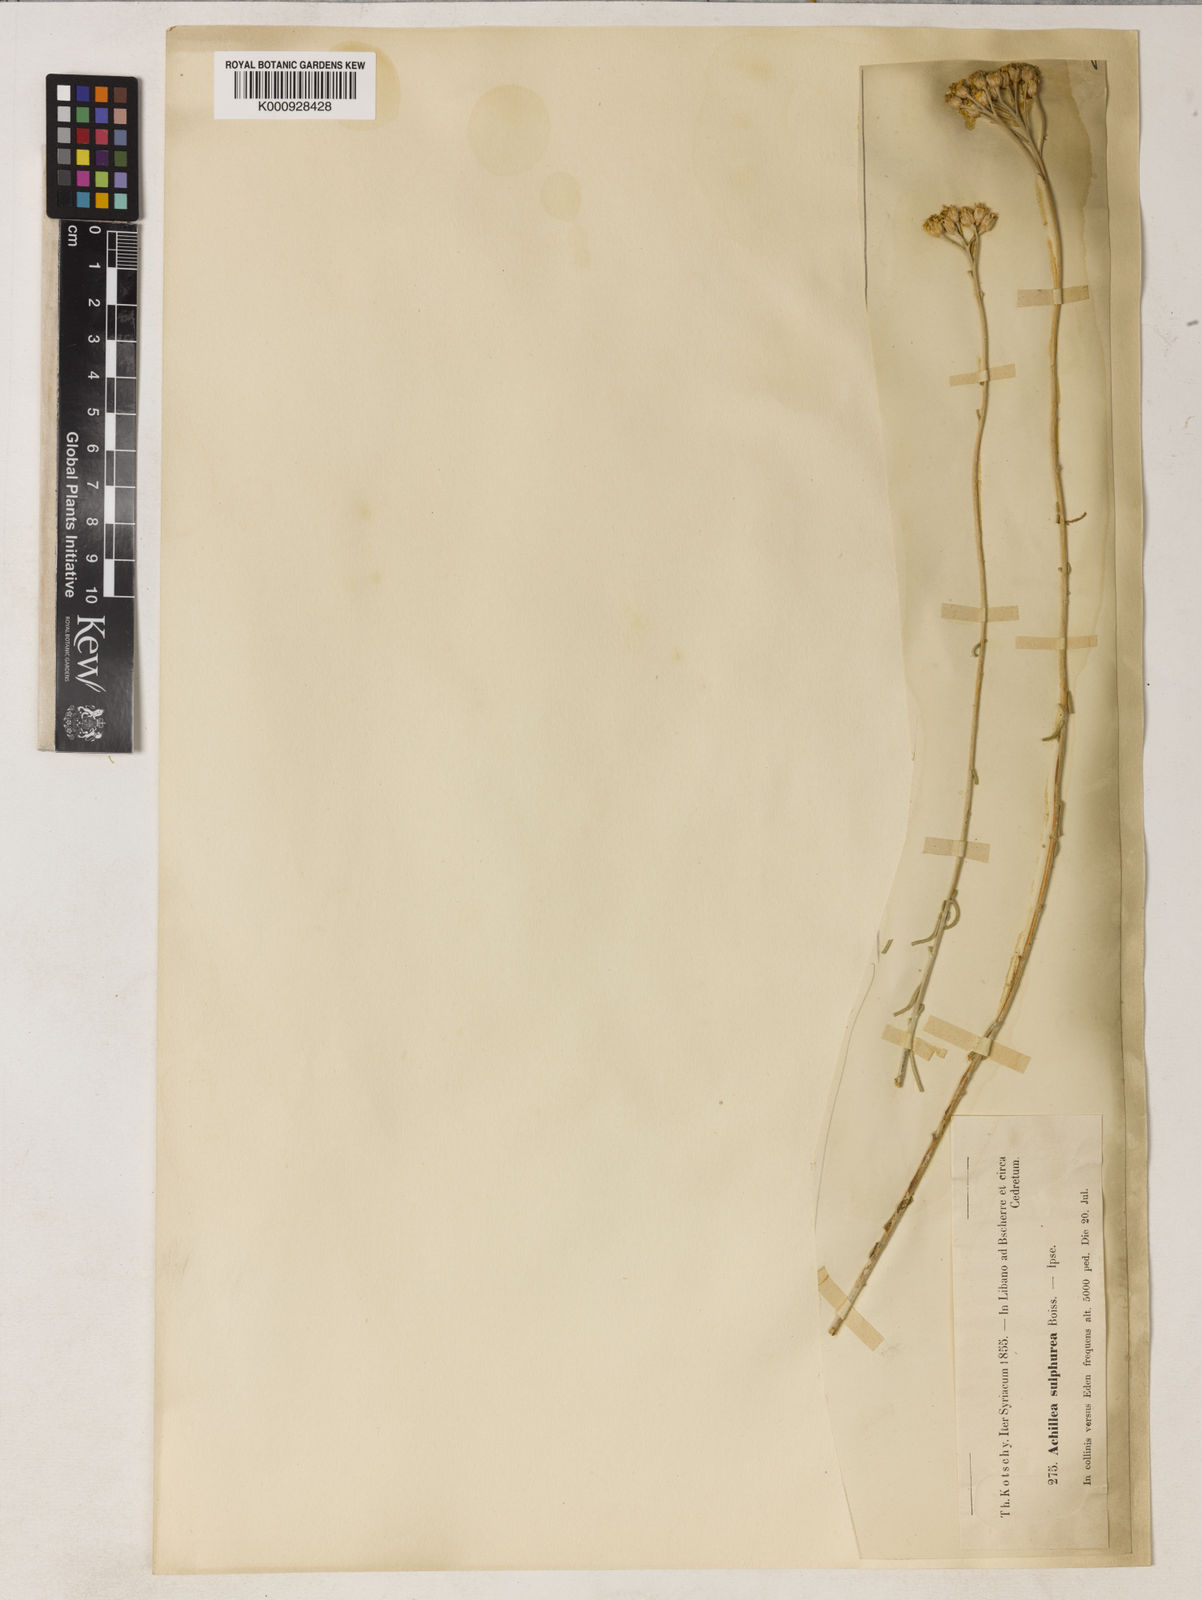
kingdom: Plantae
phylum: Tracheophyta
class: Magnoliopsida
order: Asterales
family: Asteraceae
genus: Achillea
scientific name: Achillea falcata
